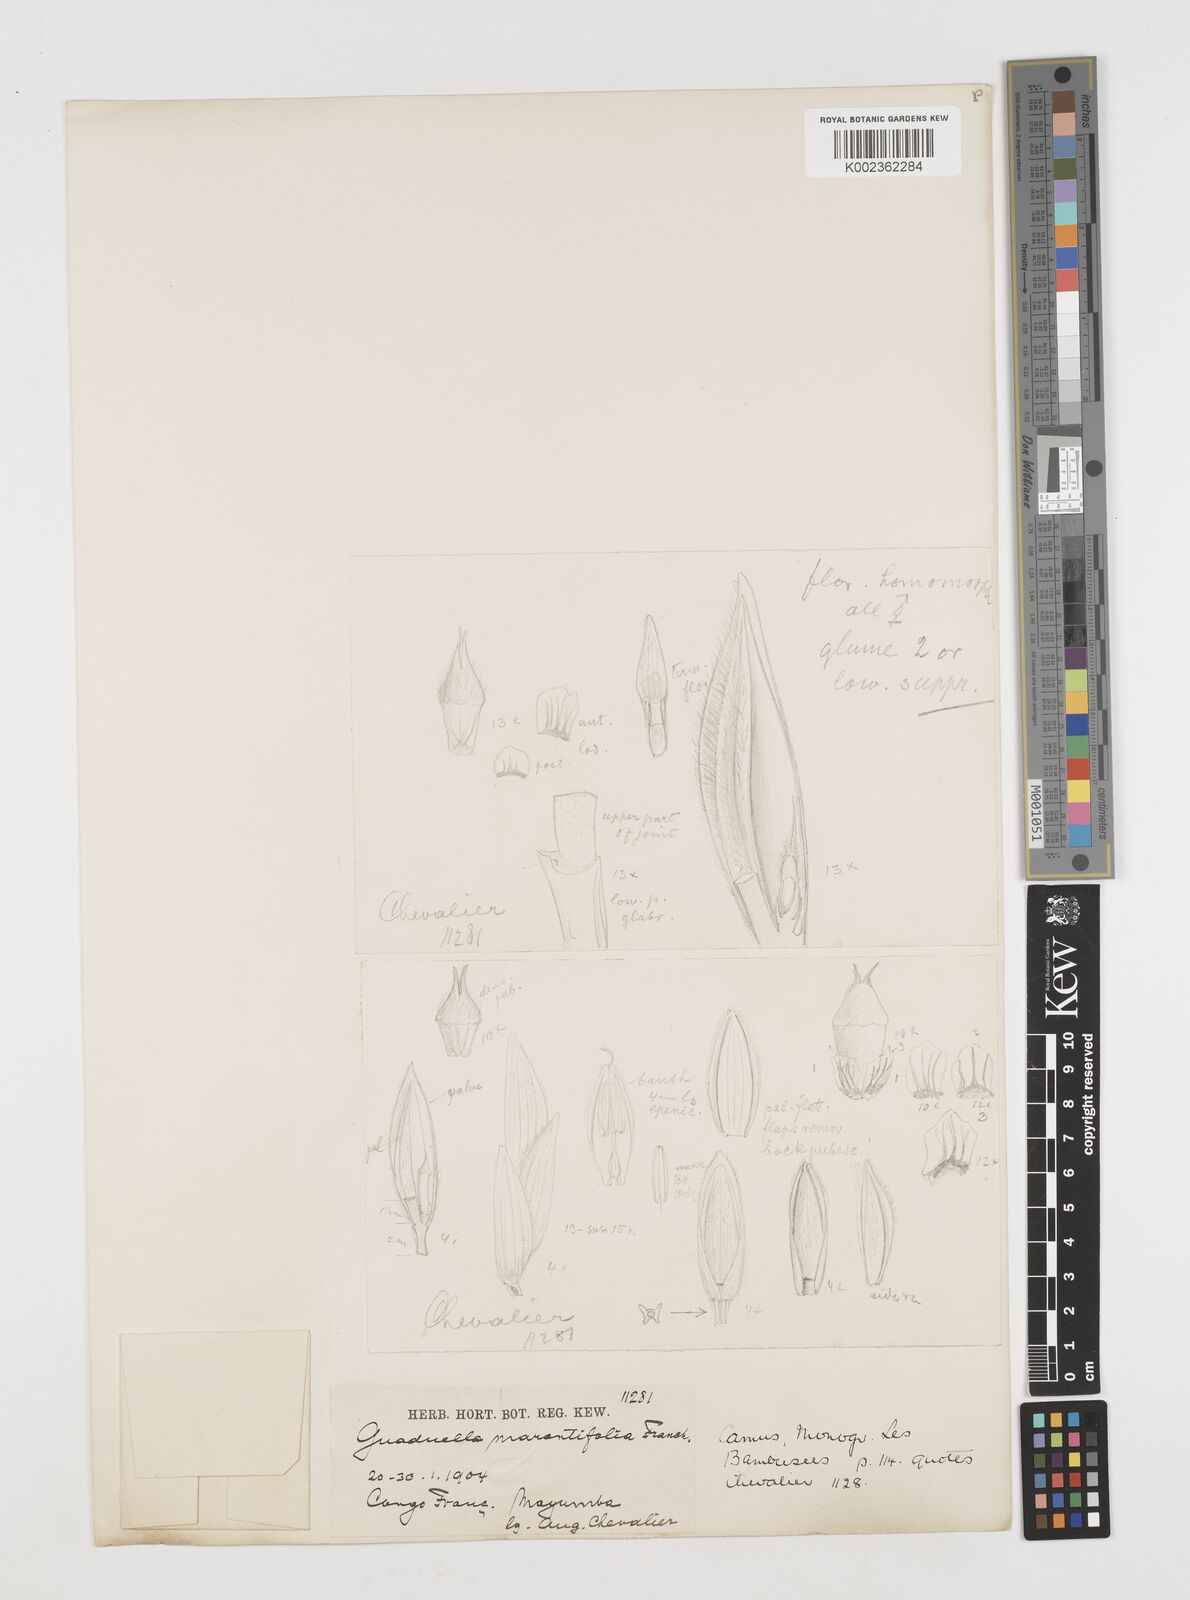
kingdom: Plantae
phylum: Tracheophyta
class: Liliopsida
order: Poales
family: Poaceae
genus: Guaduella
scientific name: Guaduella marantifolia
